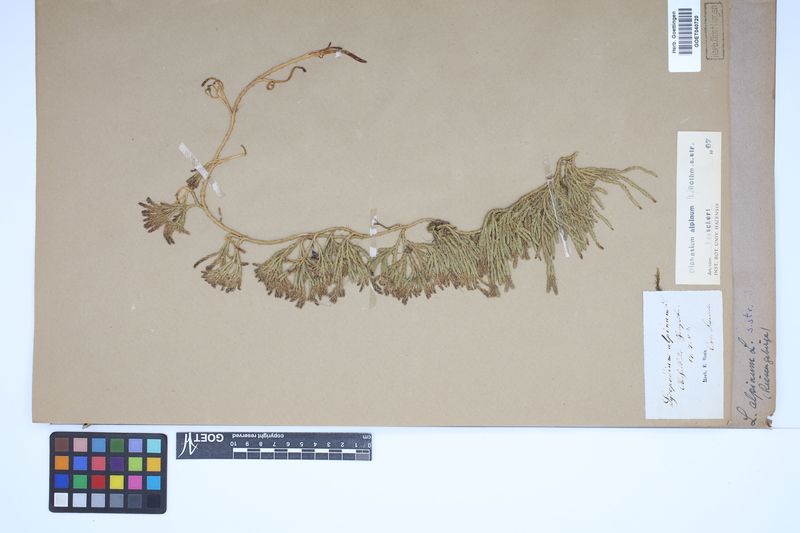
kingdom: Plantae
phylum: Tracheophyta
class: Lycopodiopsida
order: Lycopodiales
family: Lycopodiaceae
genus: Diphasiastrum
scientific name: Diphasiastrum alpinum
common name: Alpine clubmoss
